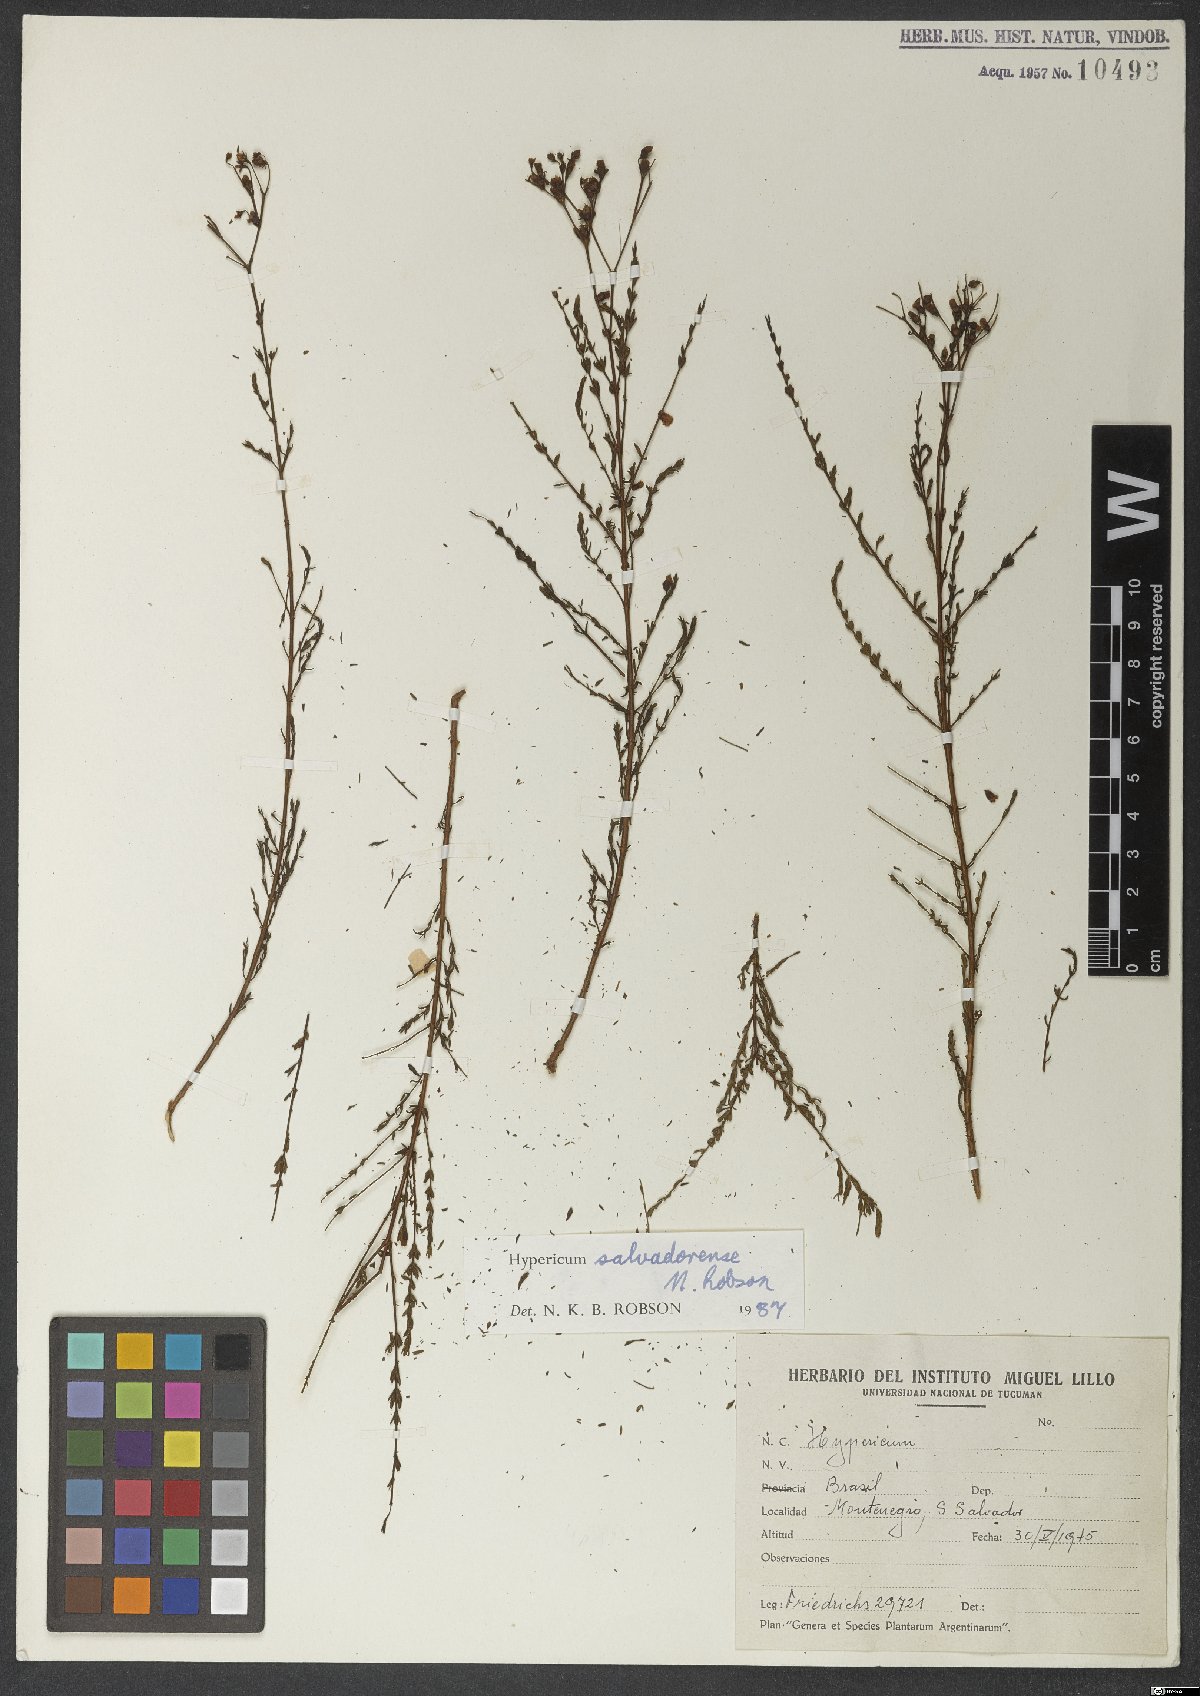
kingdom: Plantae
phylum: Tracheophyta
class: Magnoliopsida
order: Malpighiales
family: Hypericaceae
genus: Hypericum
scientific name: Hypericum salvadorense
